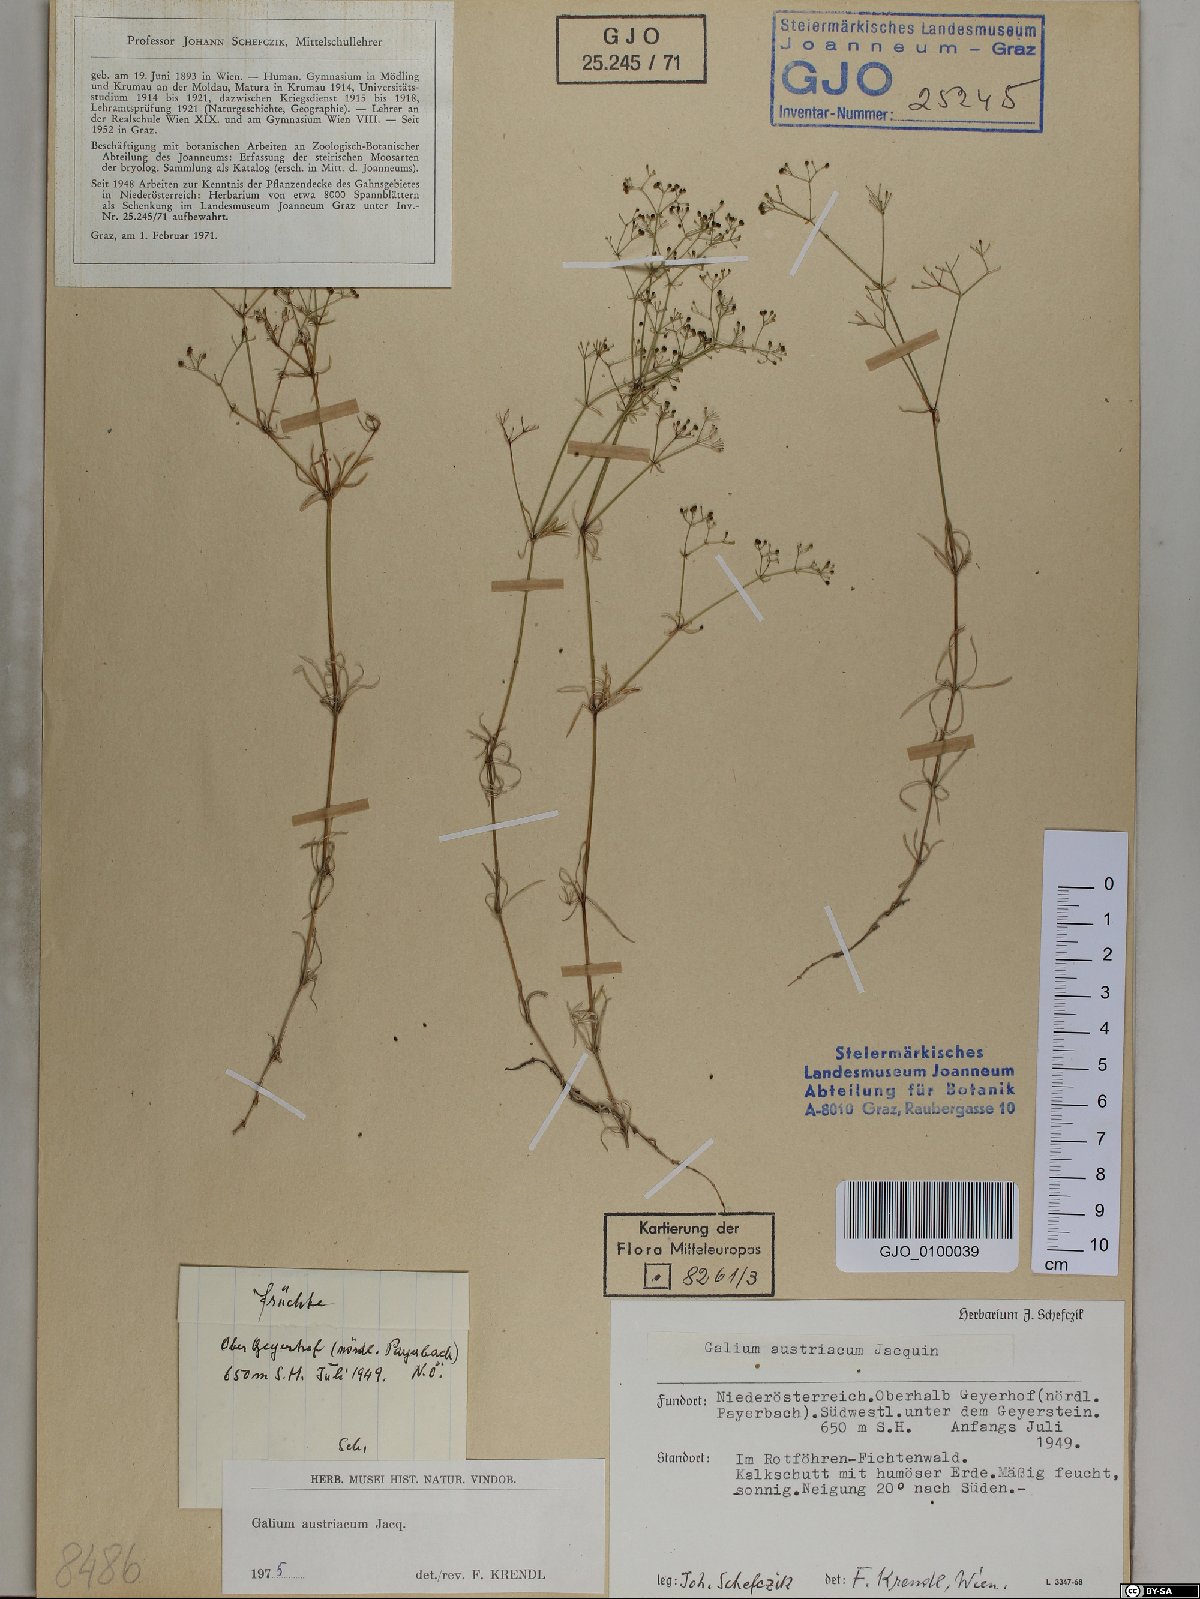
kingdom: Plantae
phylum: Tracheophyta
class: Magnoliopsida
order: Gentianales
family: Rubiaceae
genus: Galium
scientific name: Galium austriacum
